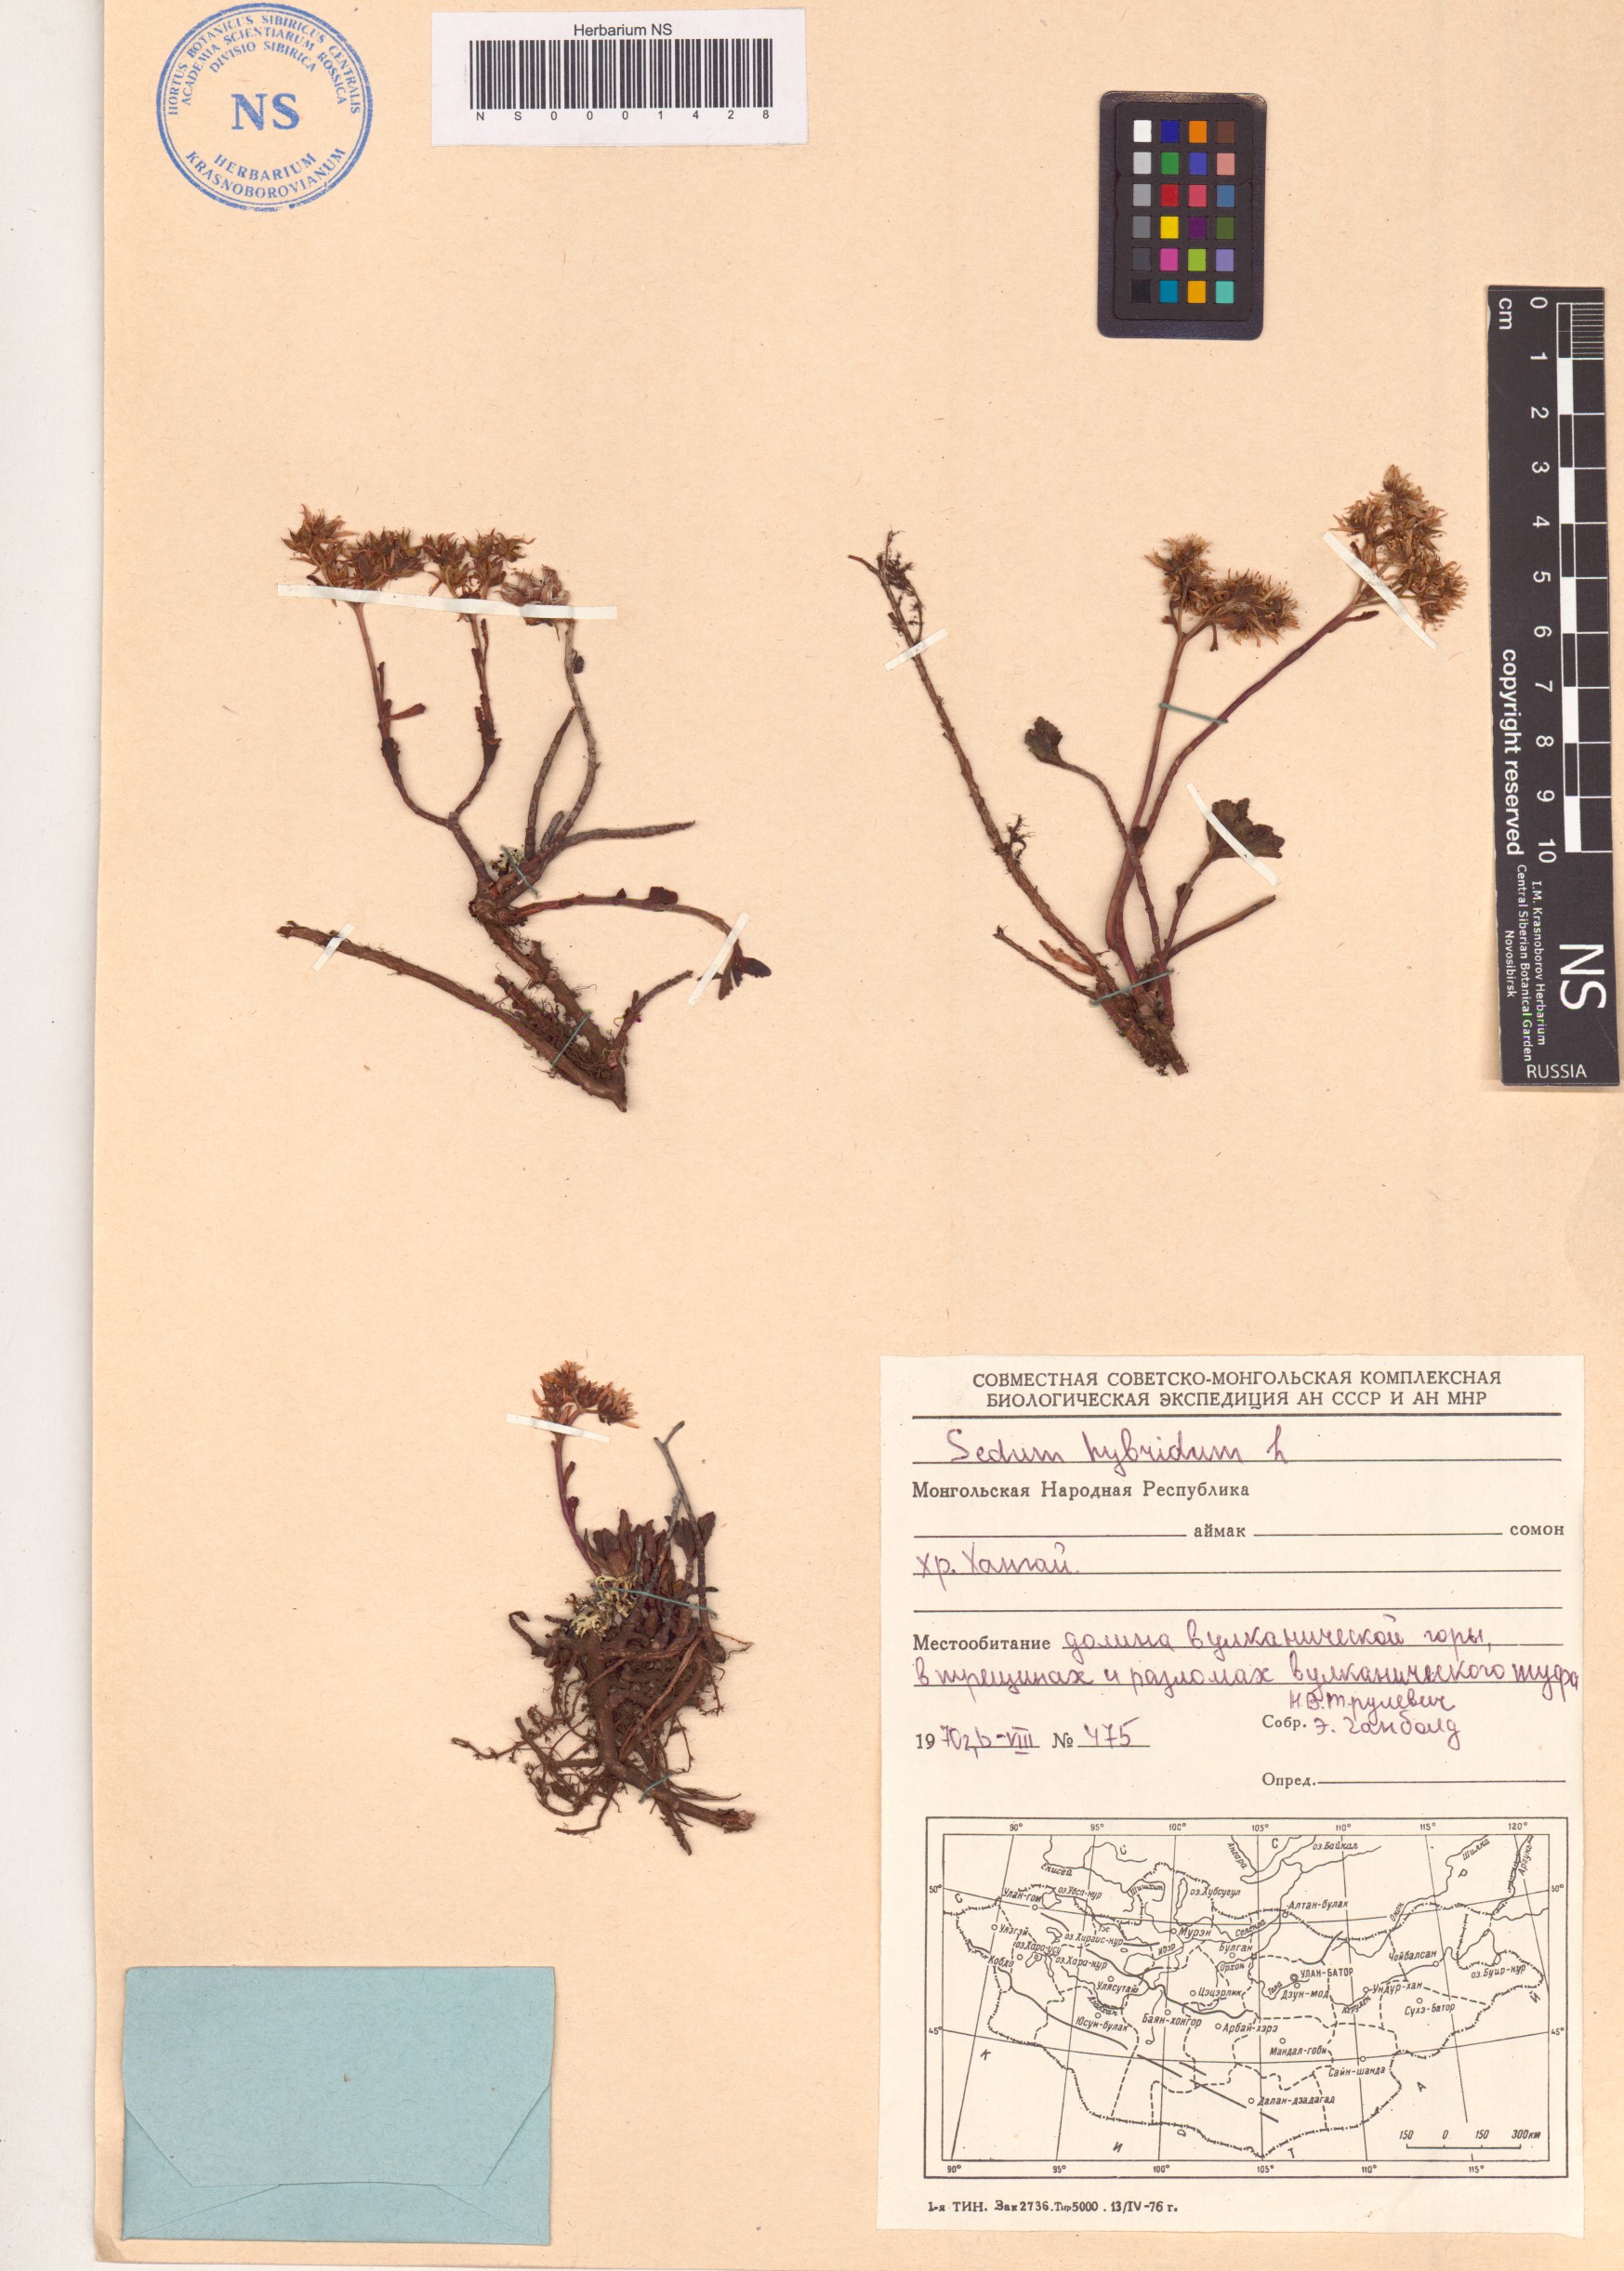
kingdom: Plantae
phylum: Tracheophyta
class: Magnoliopsida
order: Saxifragales
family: Crassulaceae
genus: Phedimus
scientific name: Phedimus hybridus
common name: Hybrid stonecrop
